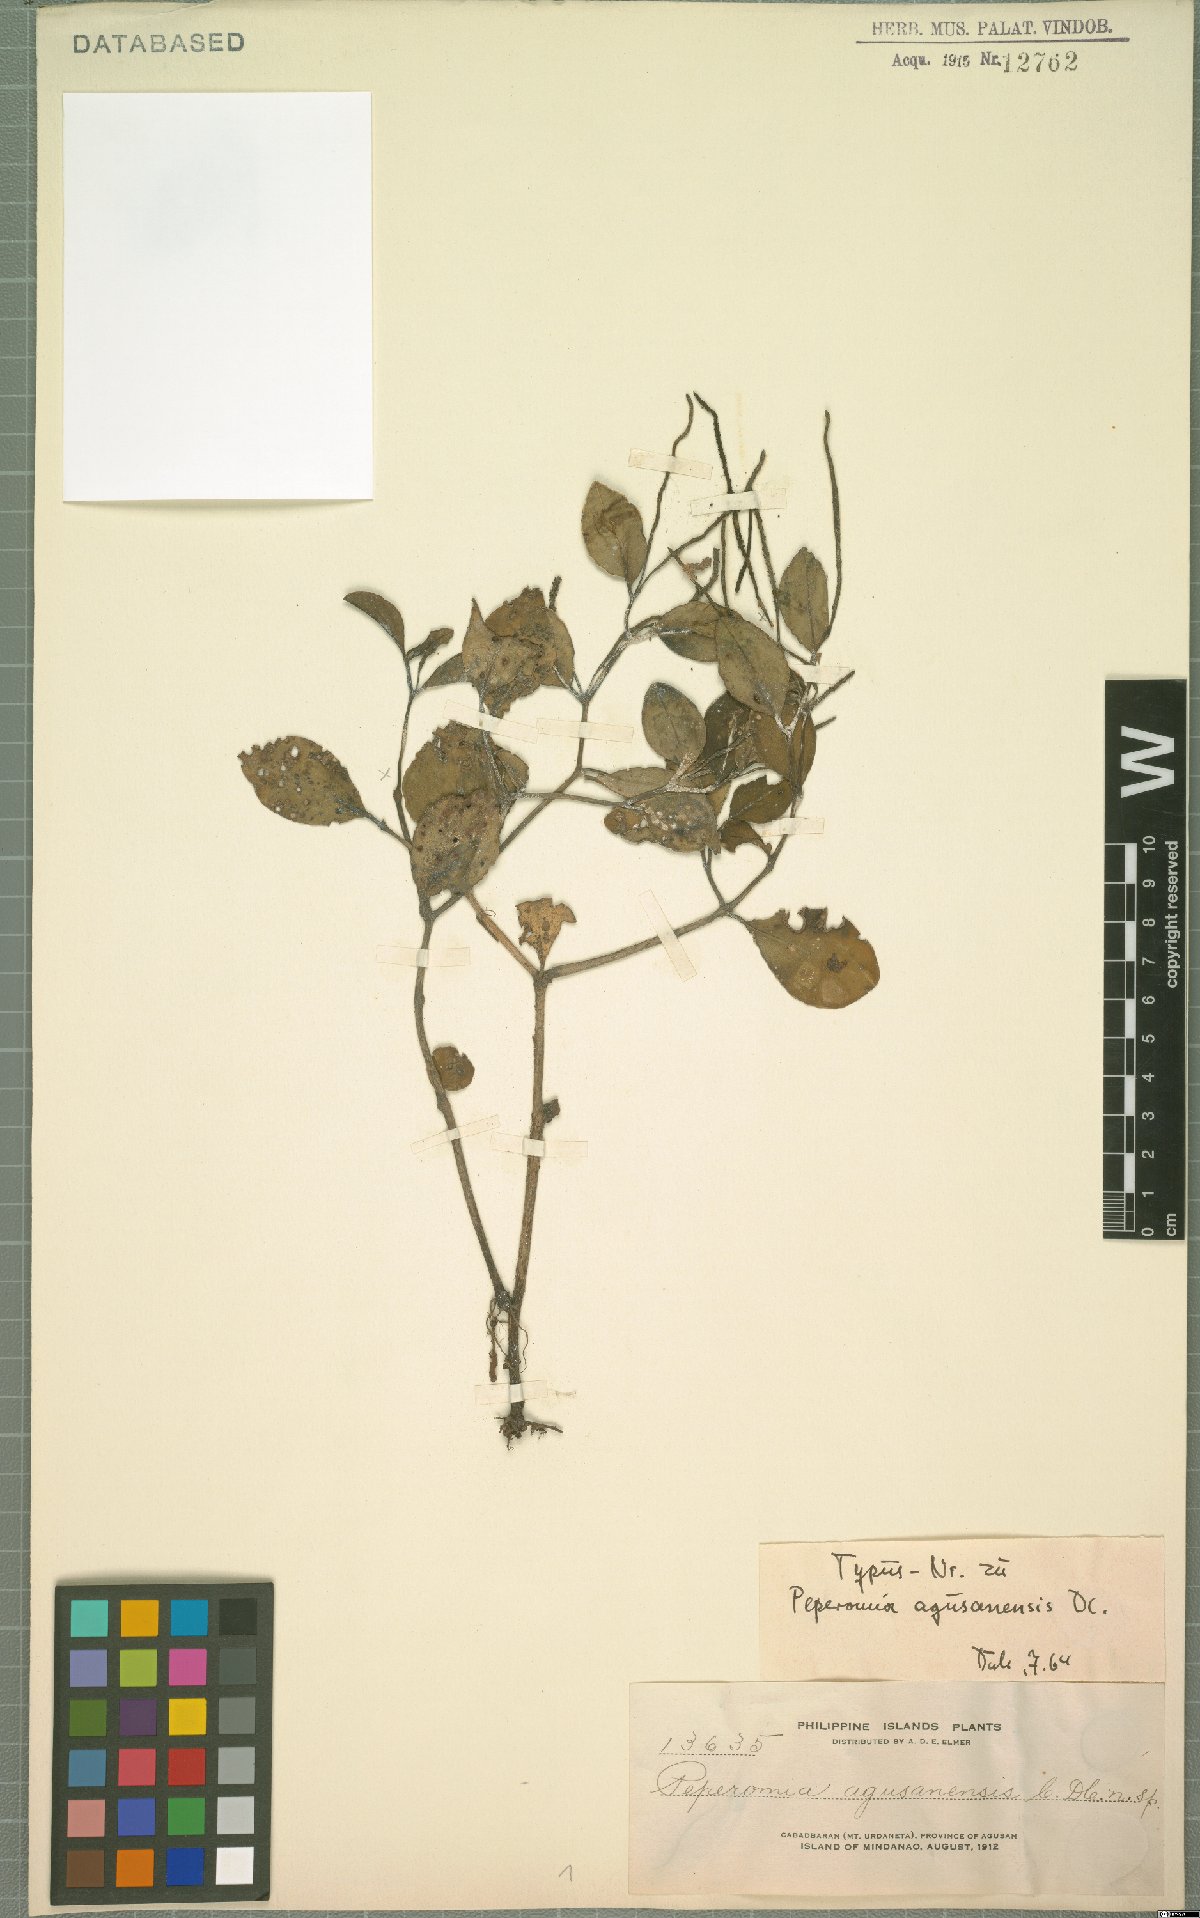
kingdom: Plantae
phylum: Tracheophyta
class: Magnoliopsida
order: Piperales
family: Piperaceae
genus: Peperomia
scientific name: Peperomia agusanensis
